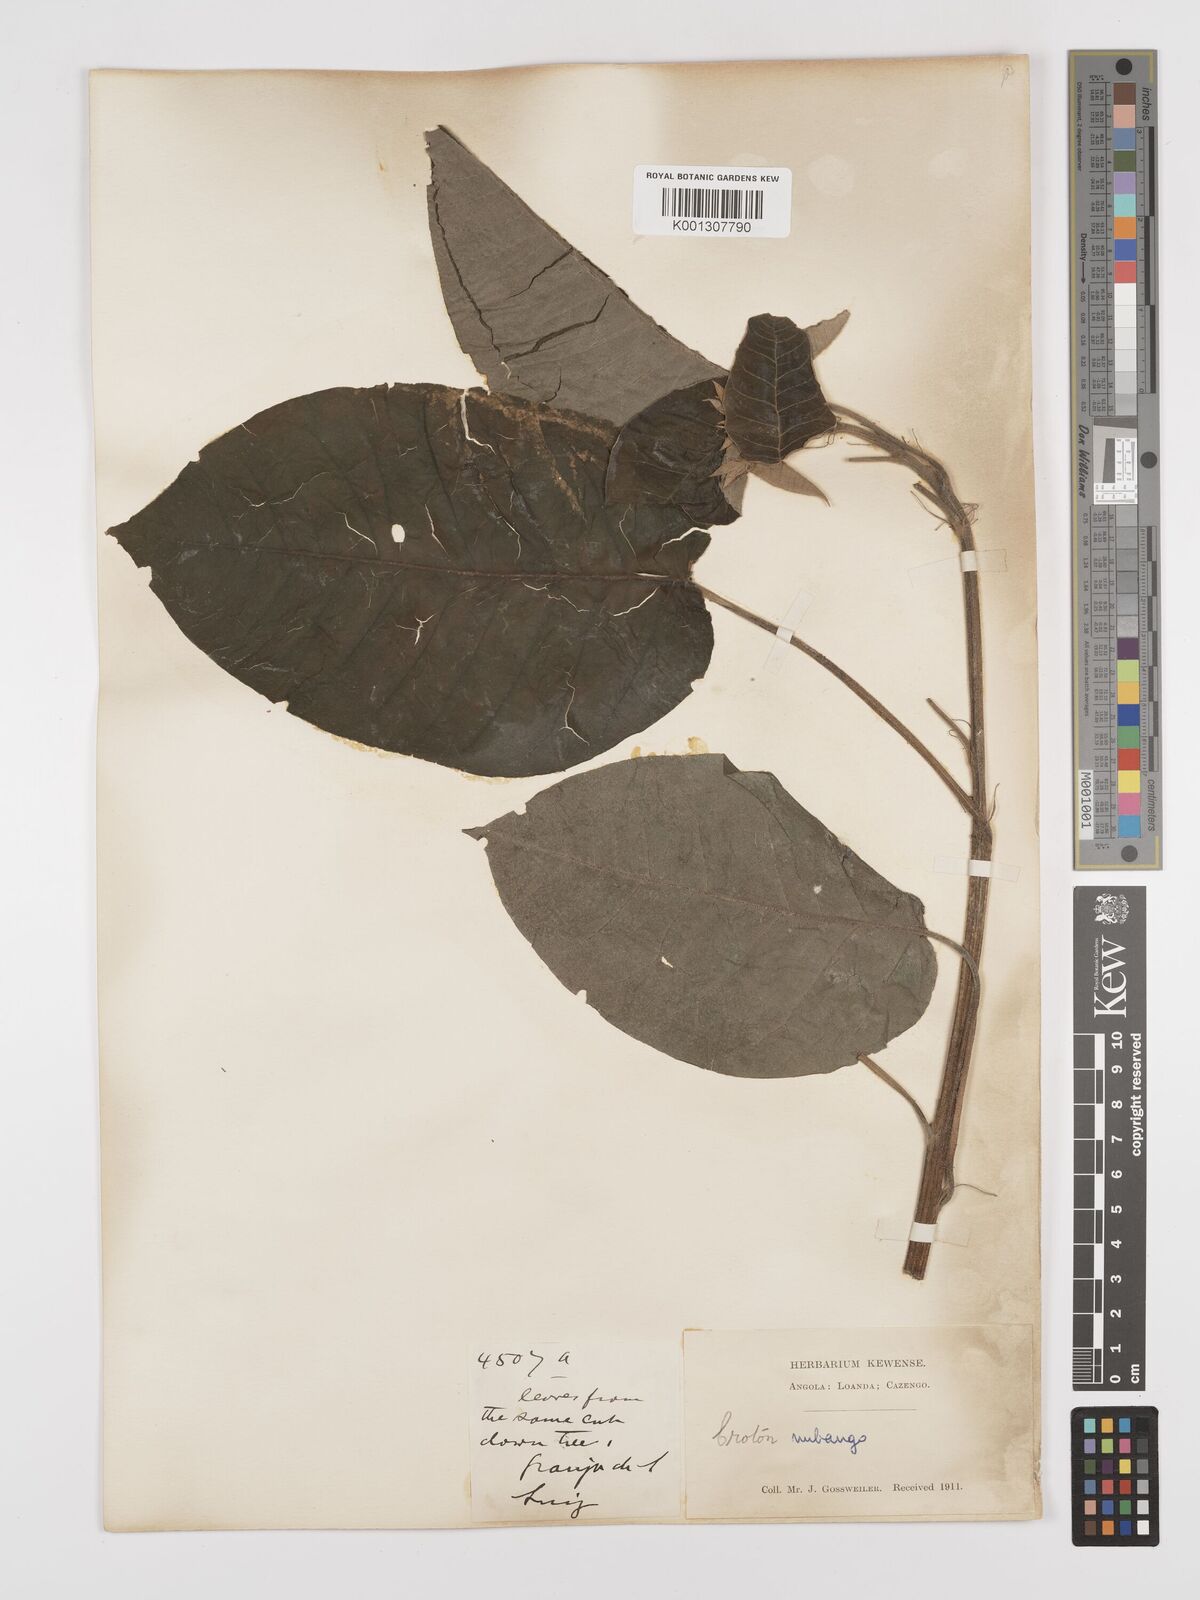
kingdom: Plantae
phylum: Tracheophyta
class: Magnoliopsida
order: Malpighiales
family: Euphorbiaceae
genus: Croton
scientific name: Croton mubango
